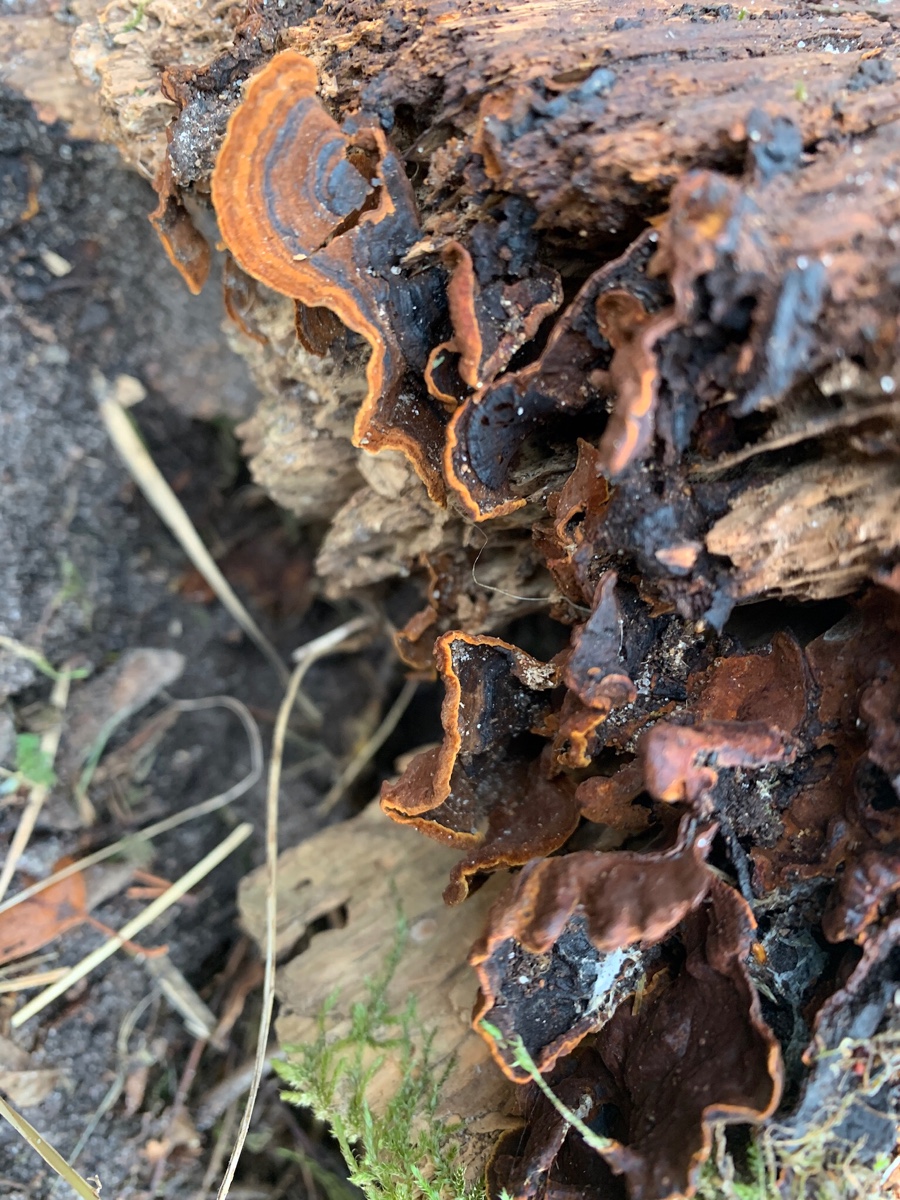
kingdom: Fungi
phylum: Basidiomycota
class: Agaricomycetes
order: Hymenochaetales
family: Hymenochaetaceae
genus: Hymenochaete
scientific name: Hymenochaete rubiginosa
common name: stiv ruslædersvamp
